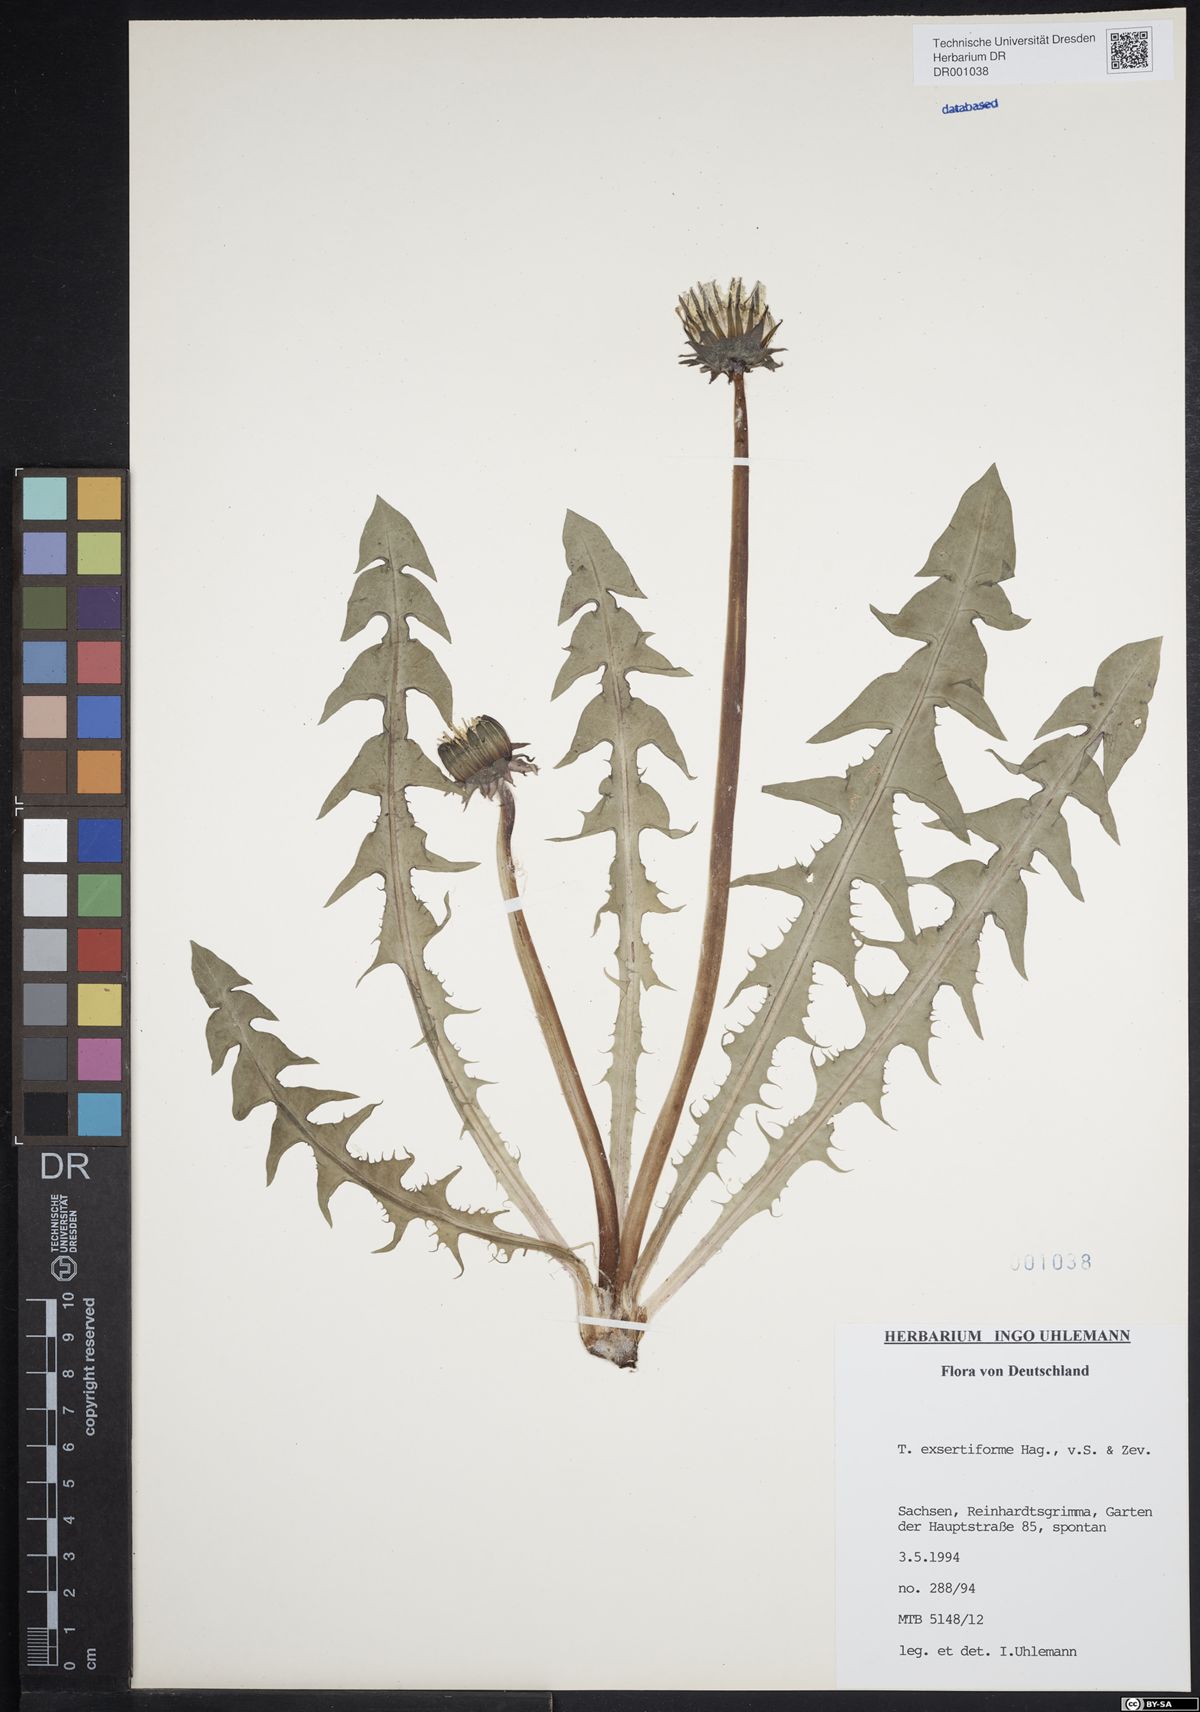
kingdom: Plantae
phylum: Tracheophyta
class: Magnoliopsida
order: Asterales
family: Asteraceae
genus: Taraxacum
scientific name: Taraxacum exsertiforme
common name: Erect-bracted dandelion
